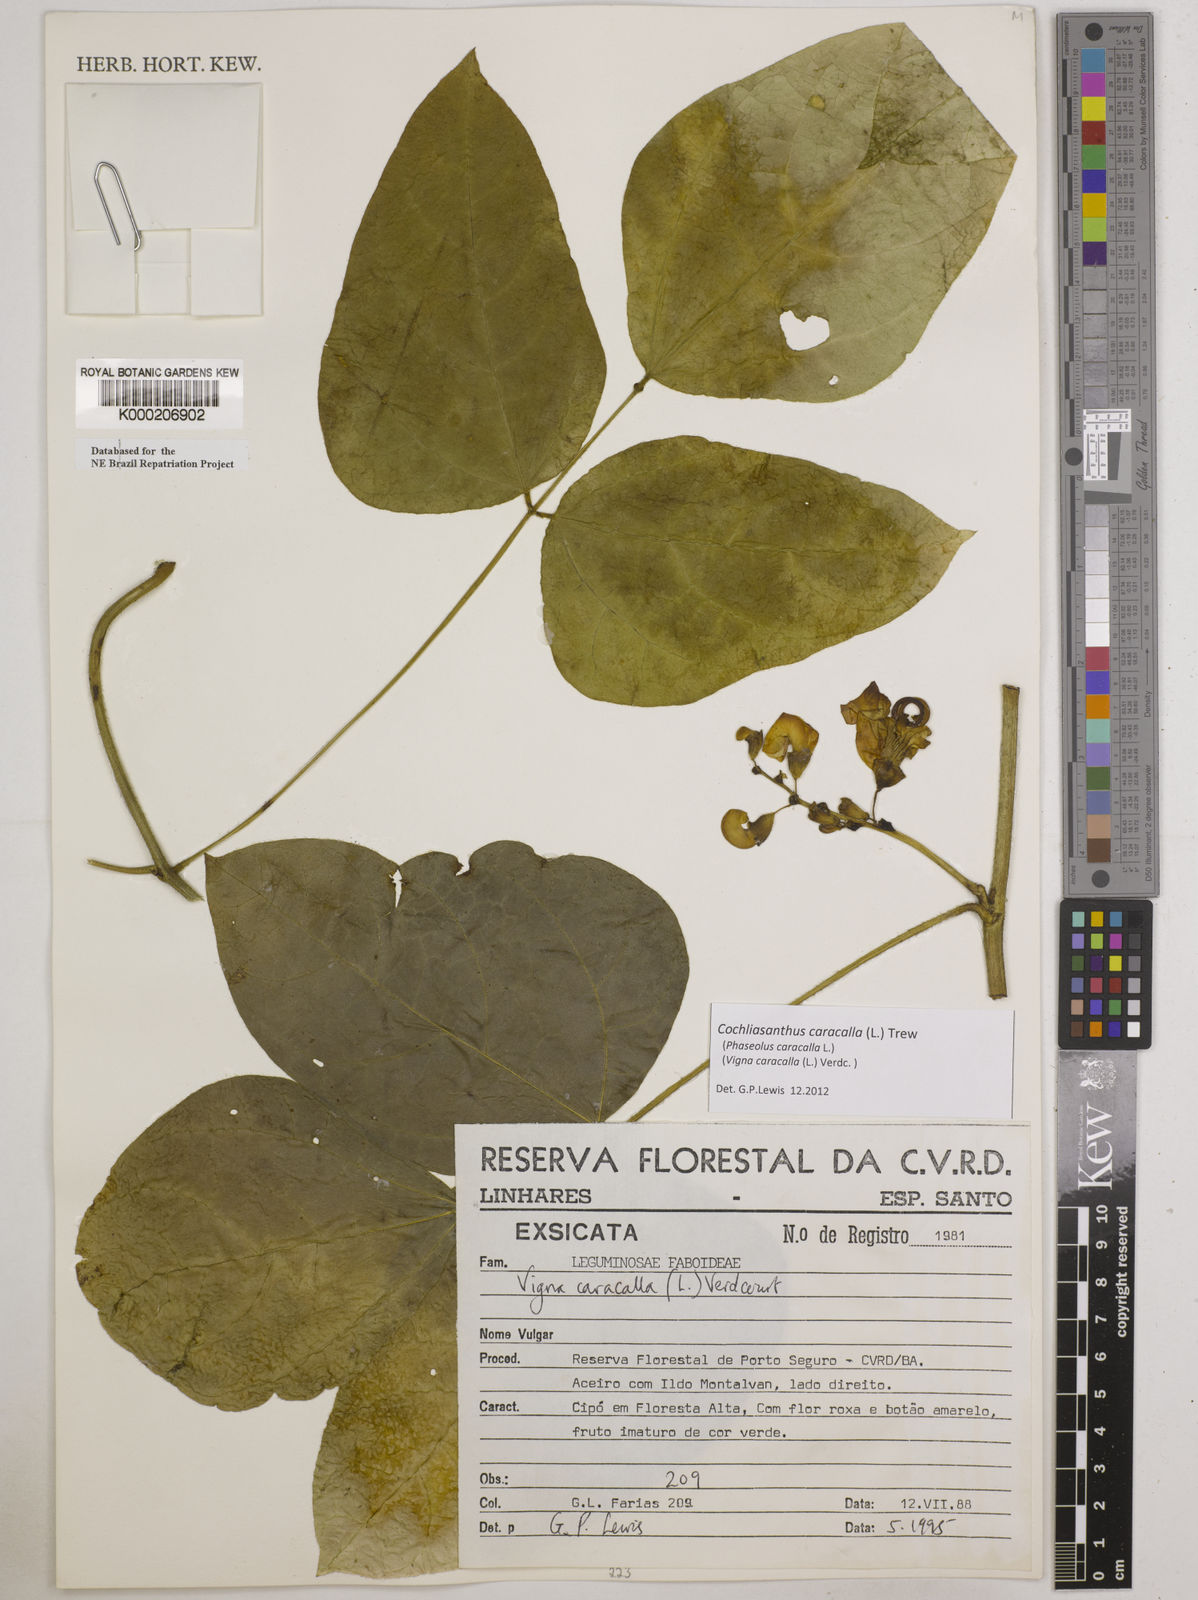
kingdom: Plantae
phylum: Tracheophyta
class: Magnoliopsida
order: Fabales
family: Fabaceae
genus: Cochliasanthus
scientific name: Cochliasanthus caracalla
